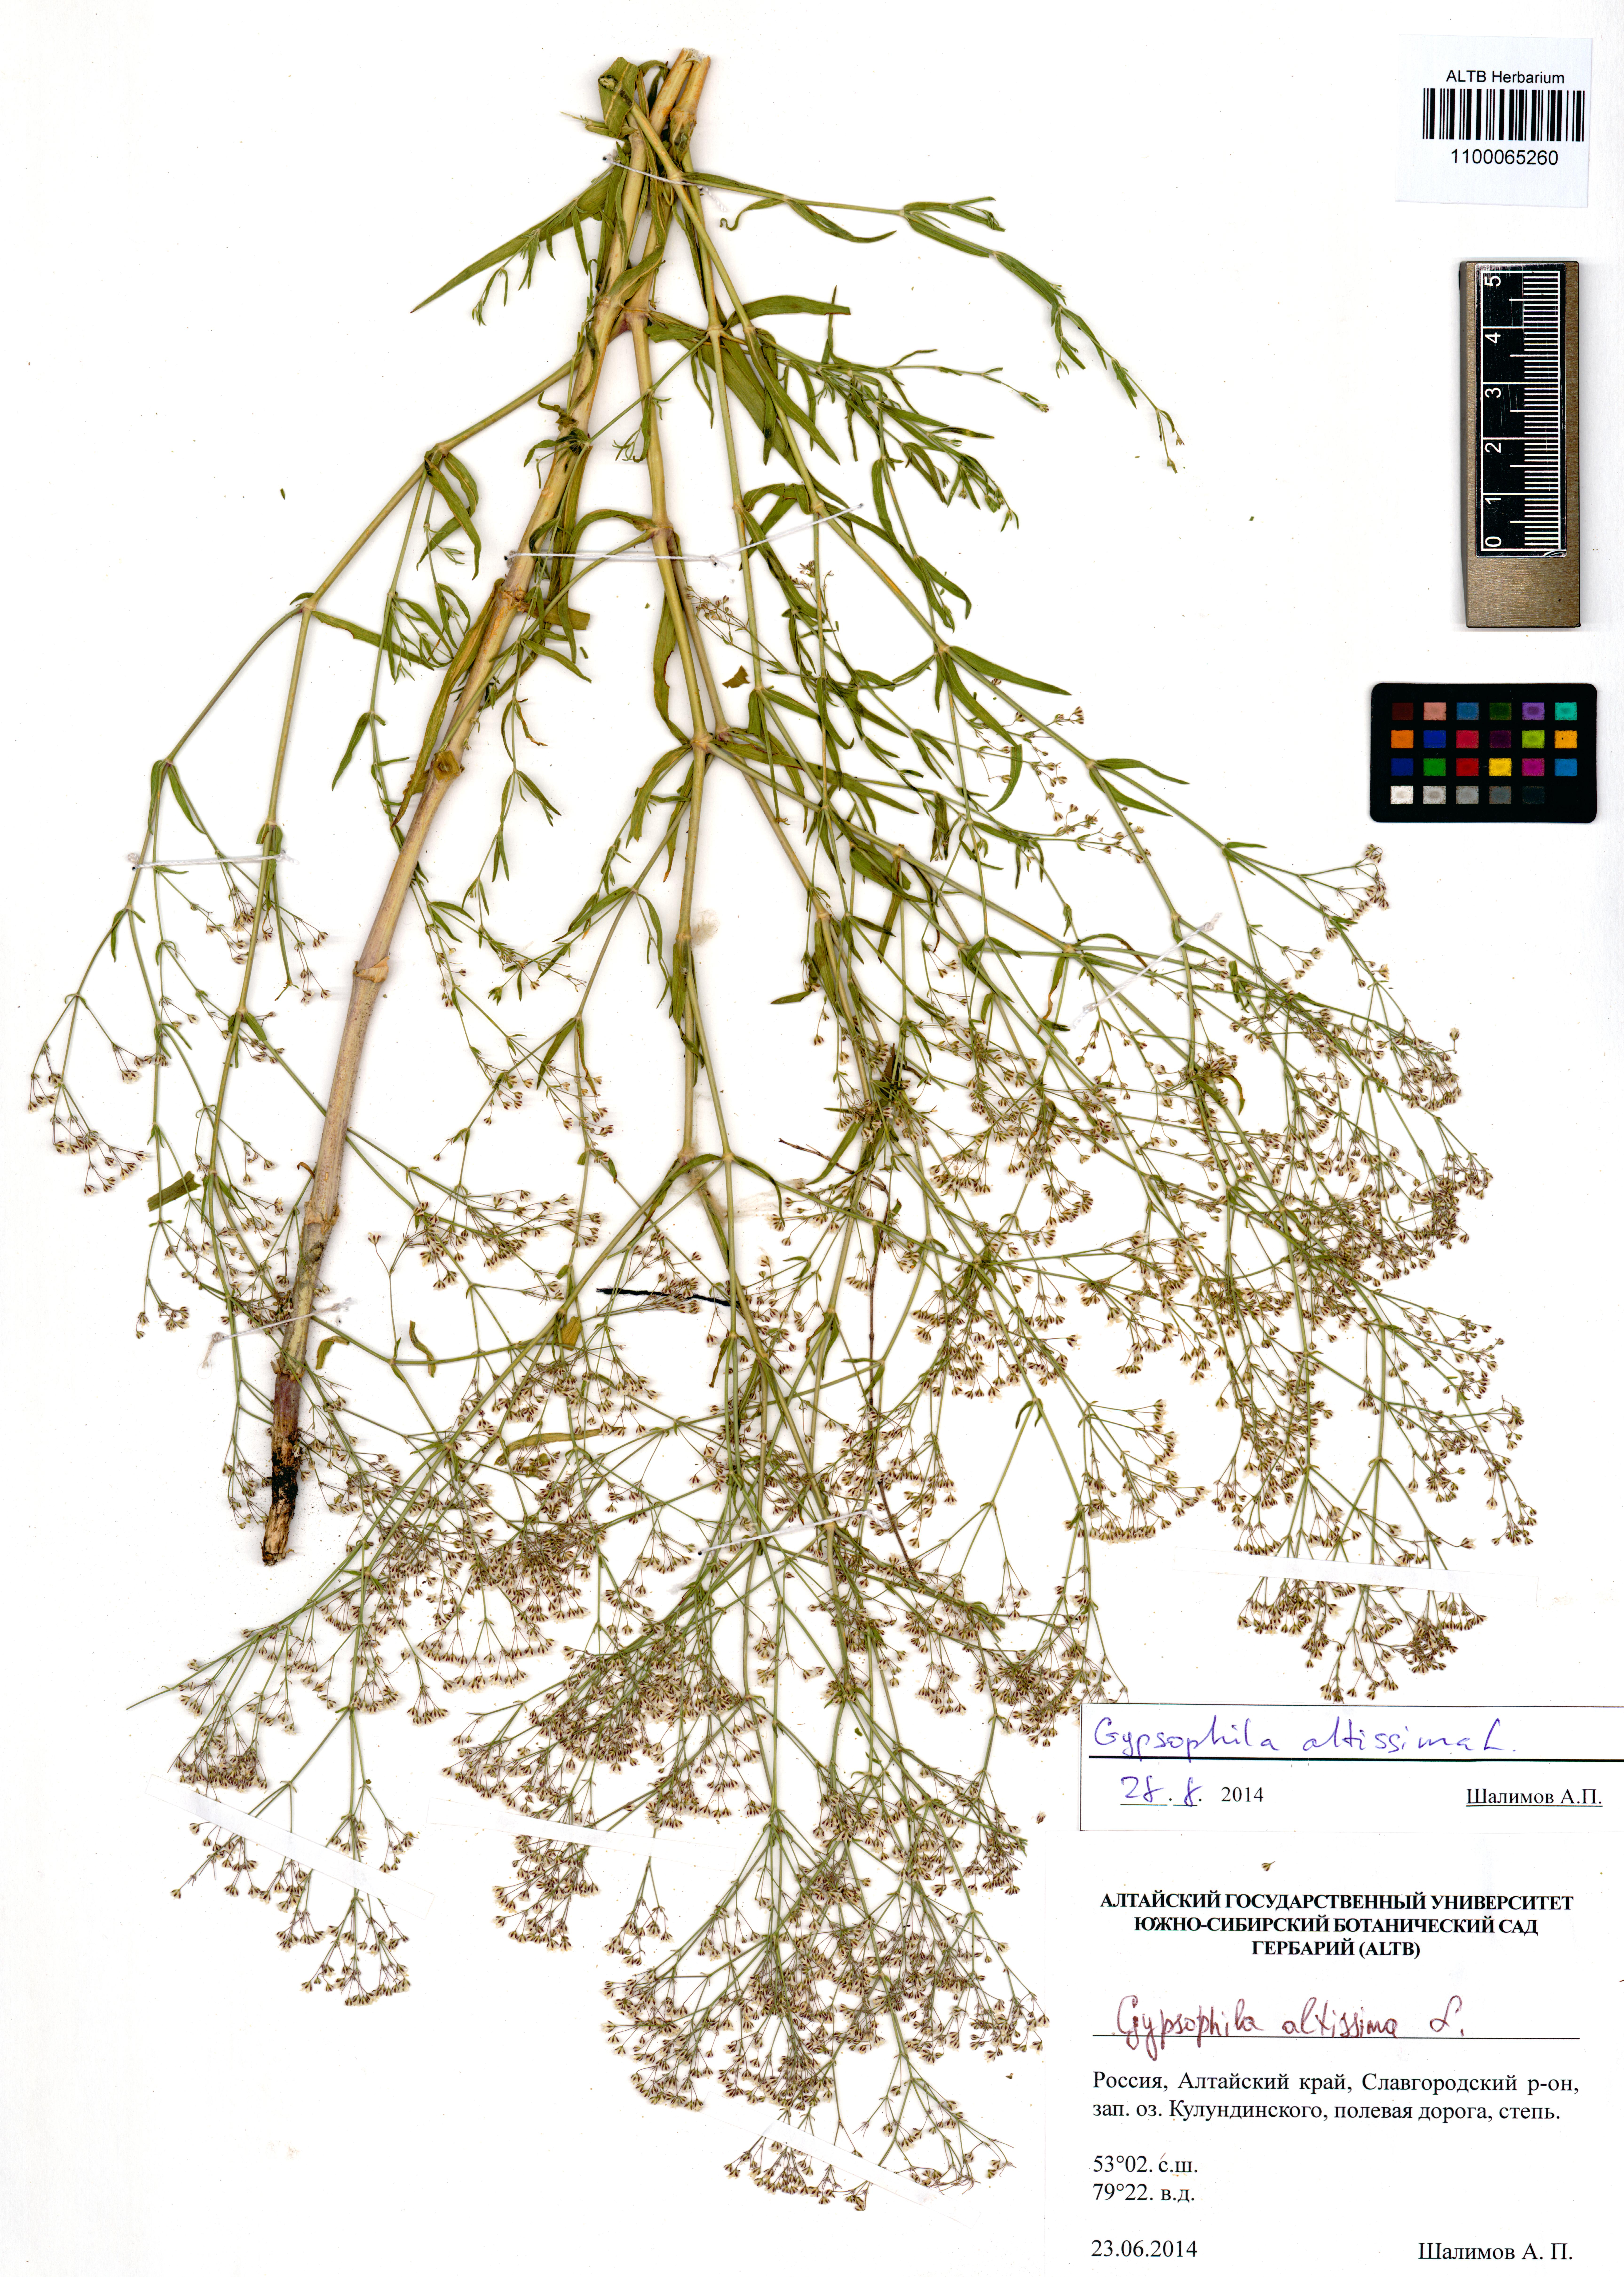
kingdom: Plantae
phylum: Tracheophyta
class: Magnoliopsida
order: Caryophyllales
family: Caryophyllaceae
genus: Gypsophila
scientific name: Gypsophila altissima
